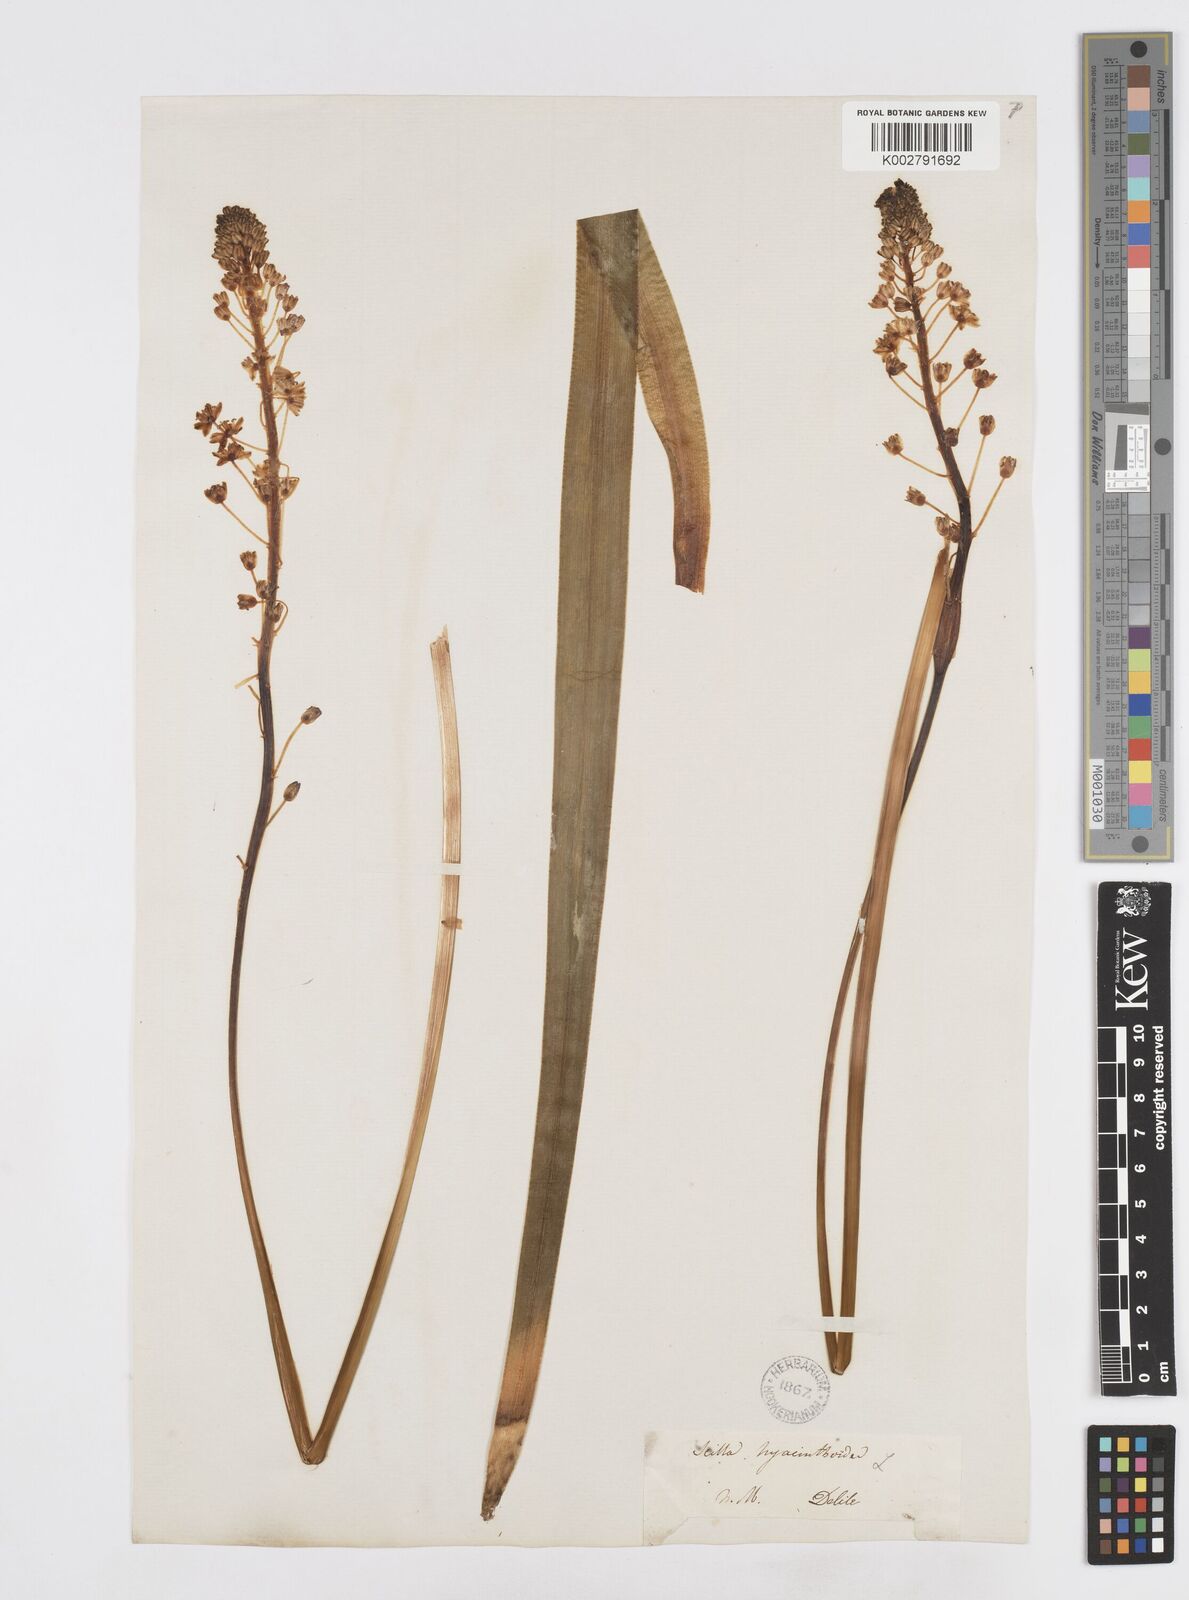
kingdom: Plantae
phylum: Tracheophyta
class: Liliopsida
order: Asparagales
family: Asparagaceae
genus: Ledebouria
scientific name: Ledebouria revoluta
